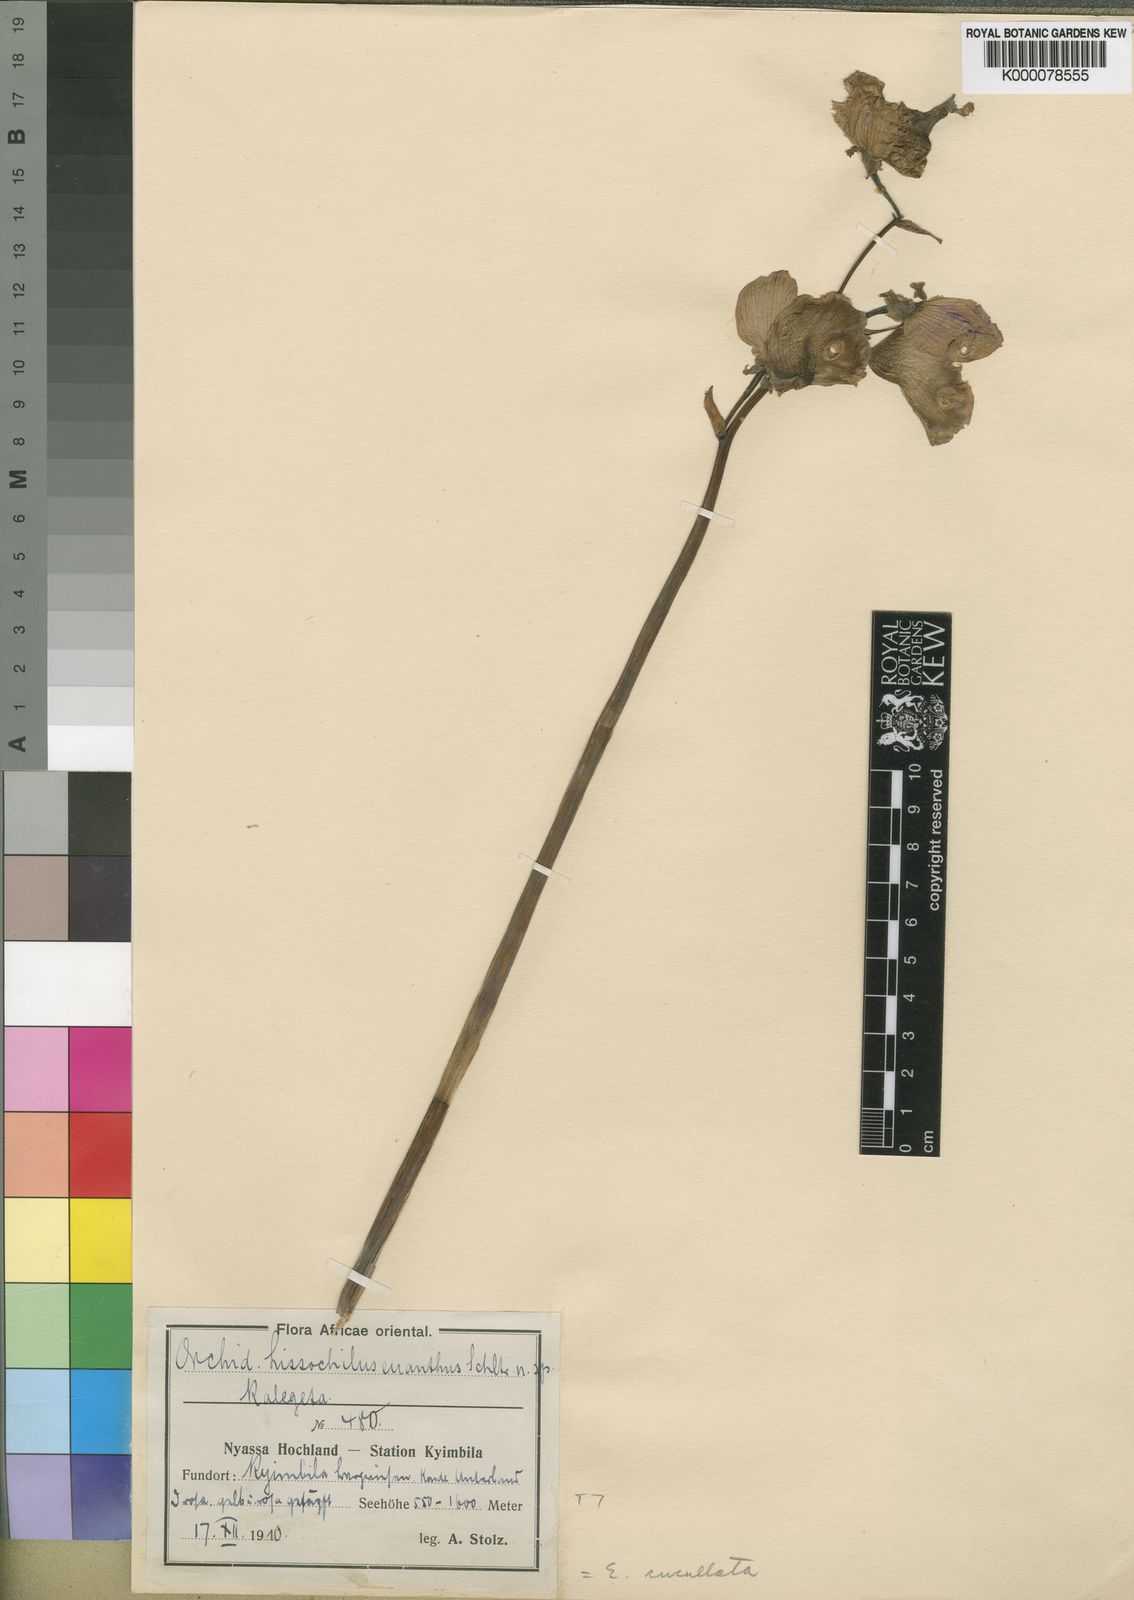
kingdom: Plantae
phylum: Tracheophyta
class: Liliopsida
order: Asparagales
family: Orchidaceae
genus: Eulophia
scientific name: Eulophia cucullata
